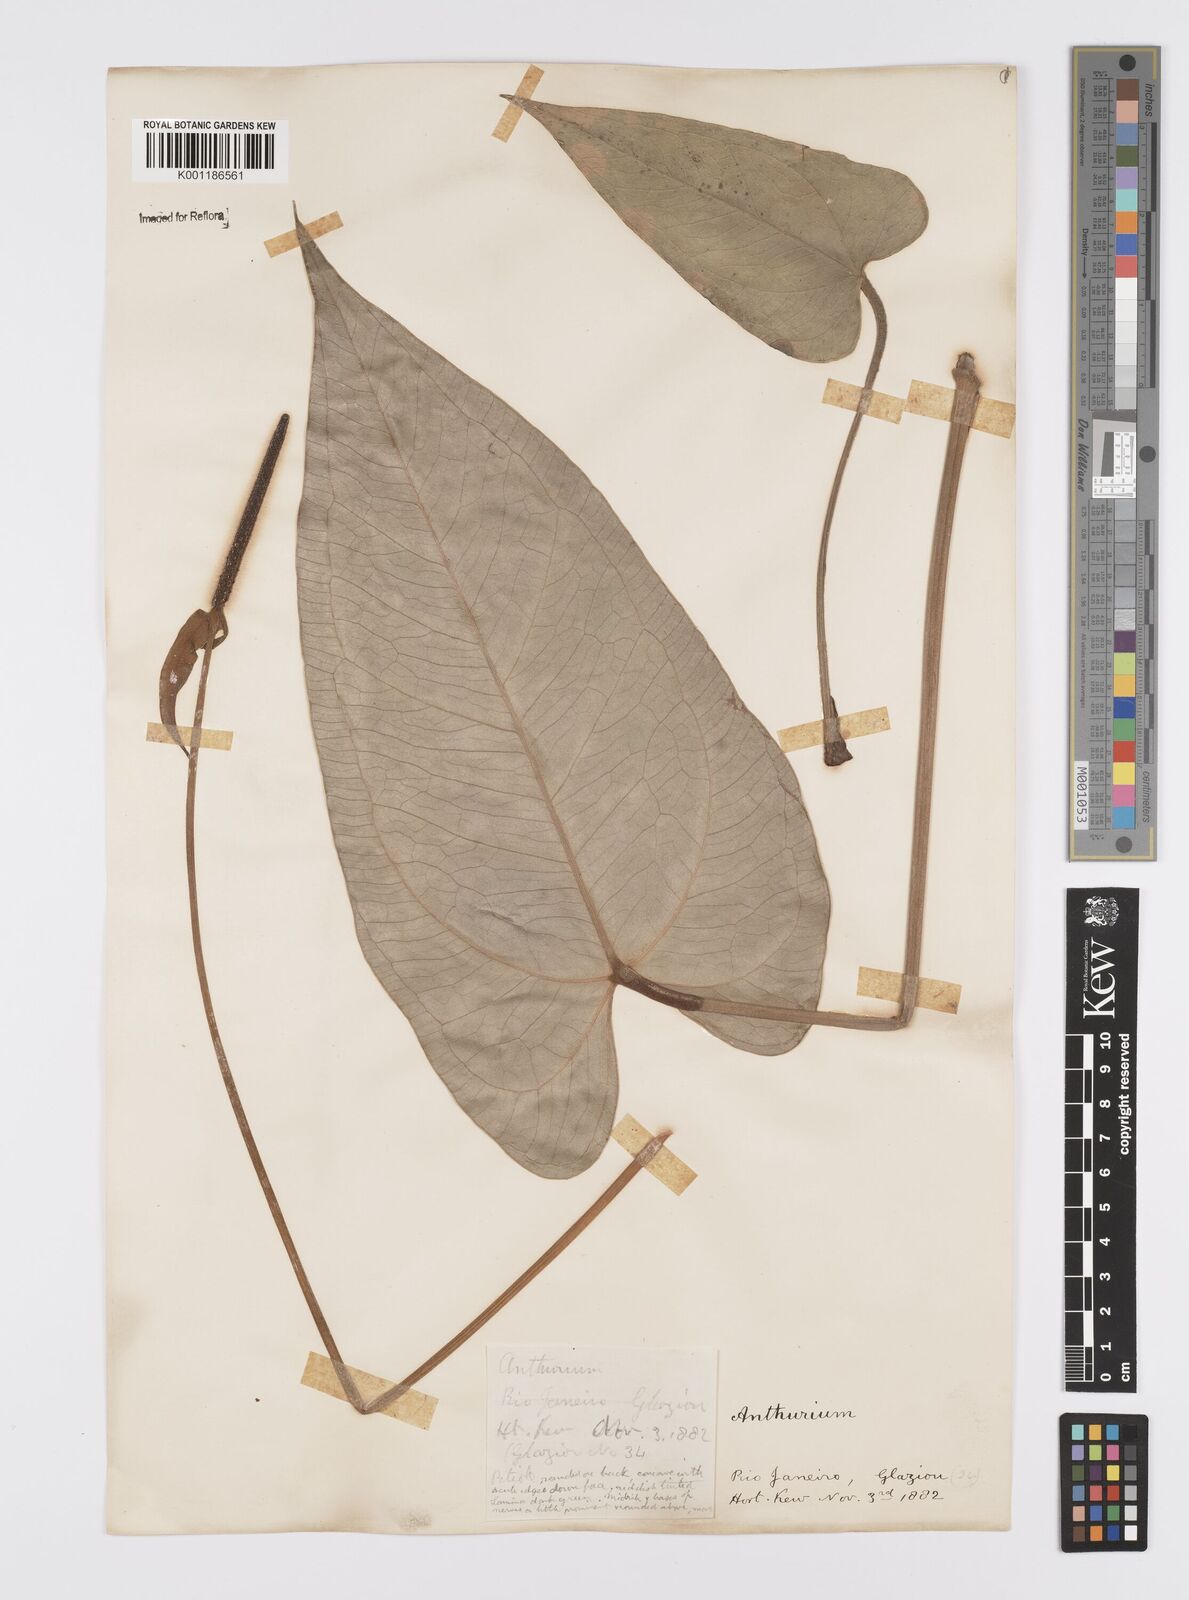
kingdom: Plantae
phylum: Tracheophyta
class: Liliopsida
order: Alismatales
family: Araceae
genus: Anthurium
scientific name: Anthurium augustinum
